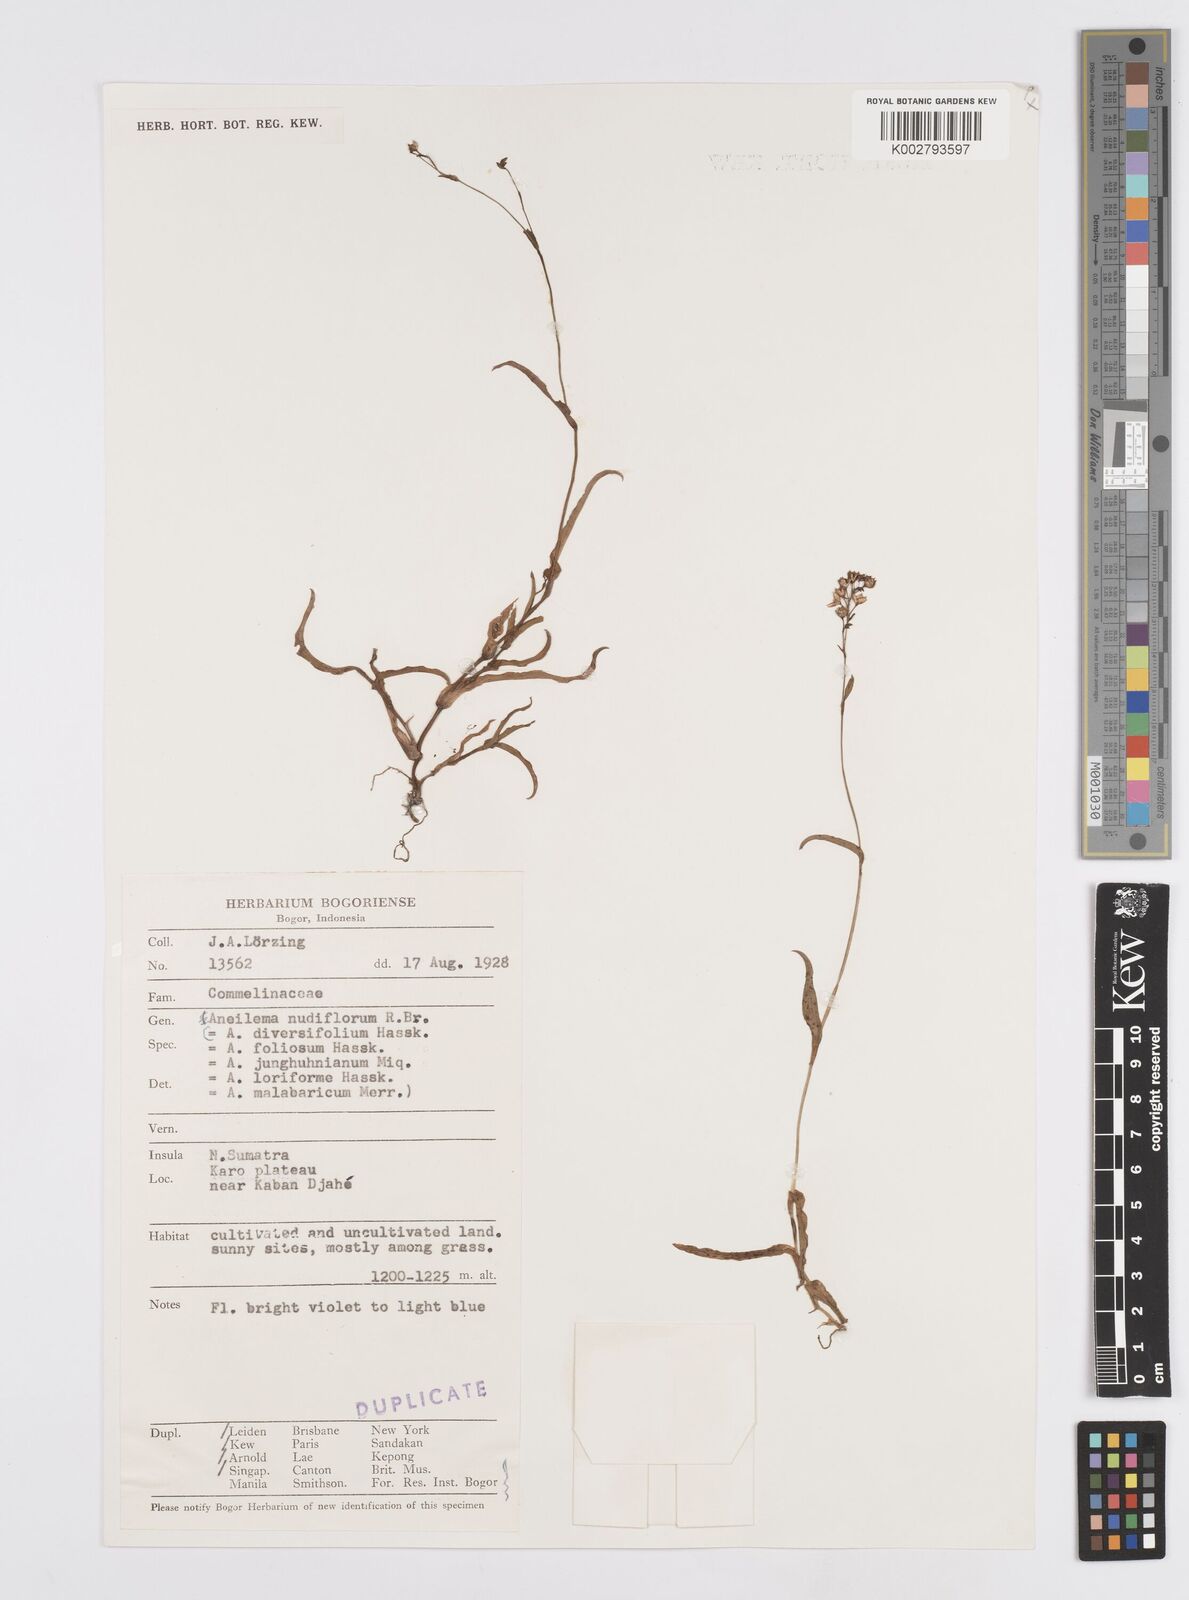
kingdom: Plantae
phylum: Tracheophyta
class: Liliopsida
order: Commelinales
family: Commelinaceae
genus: Murdannia
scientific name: Murdannia nudiflora
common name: Nakedstem dewflower
